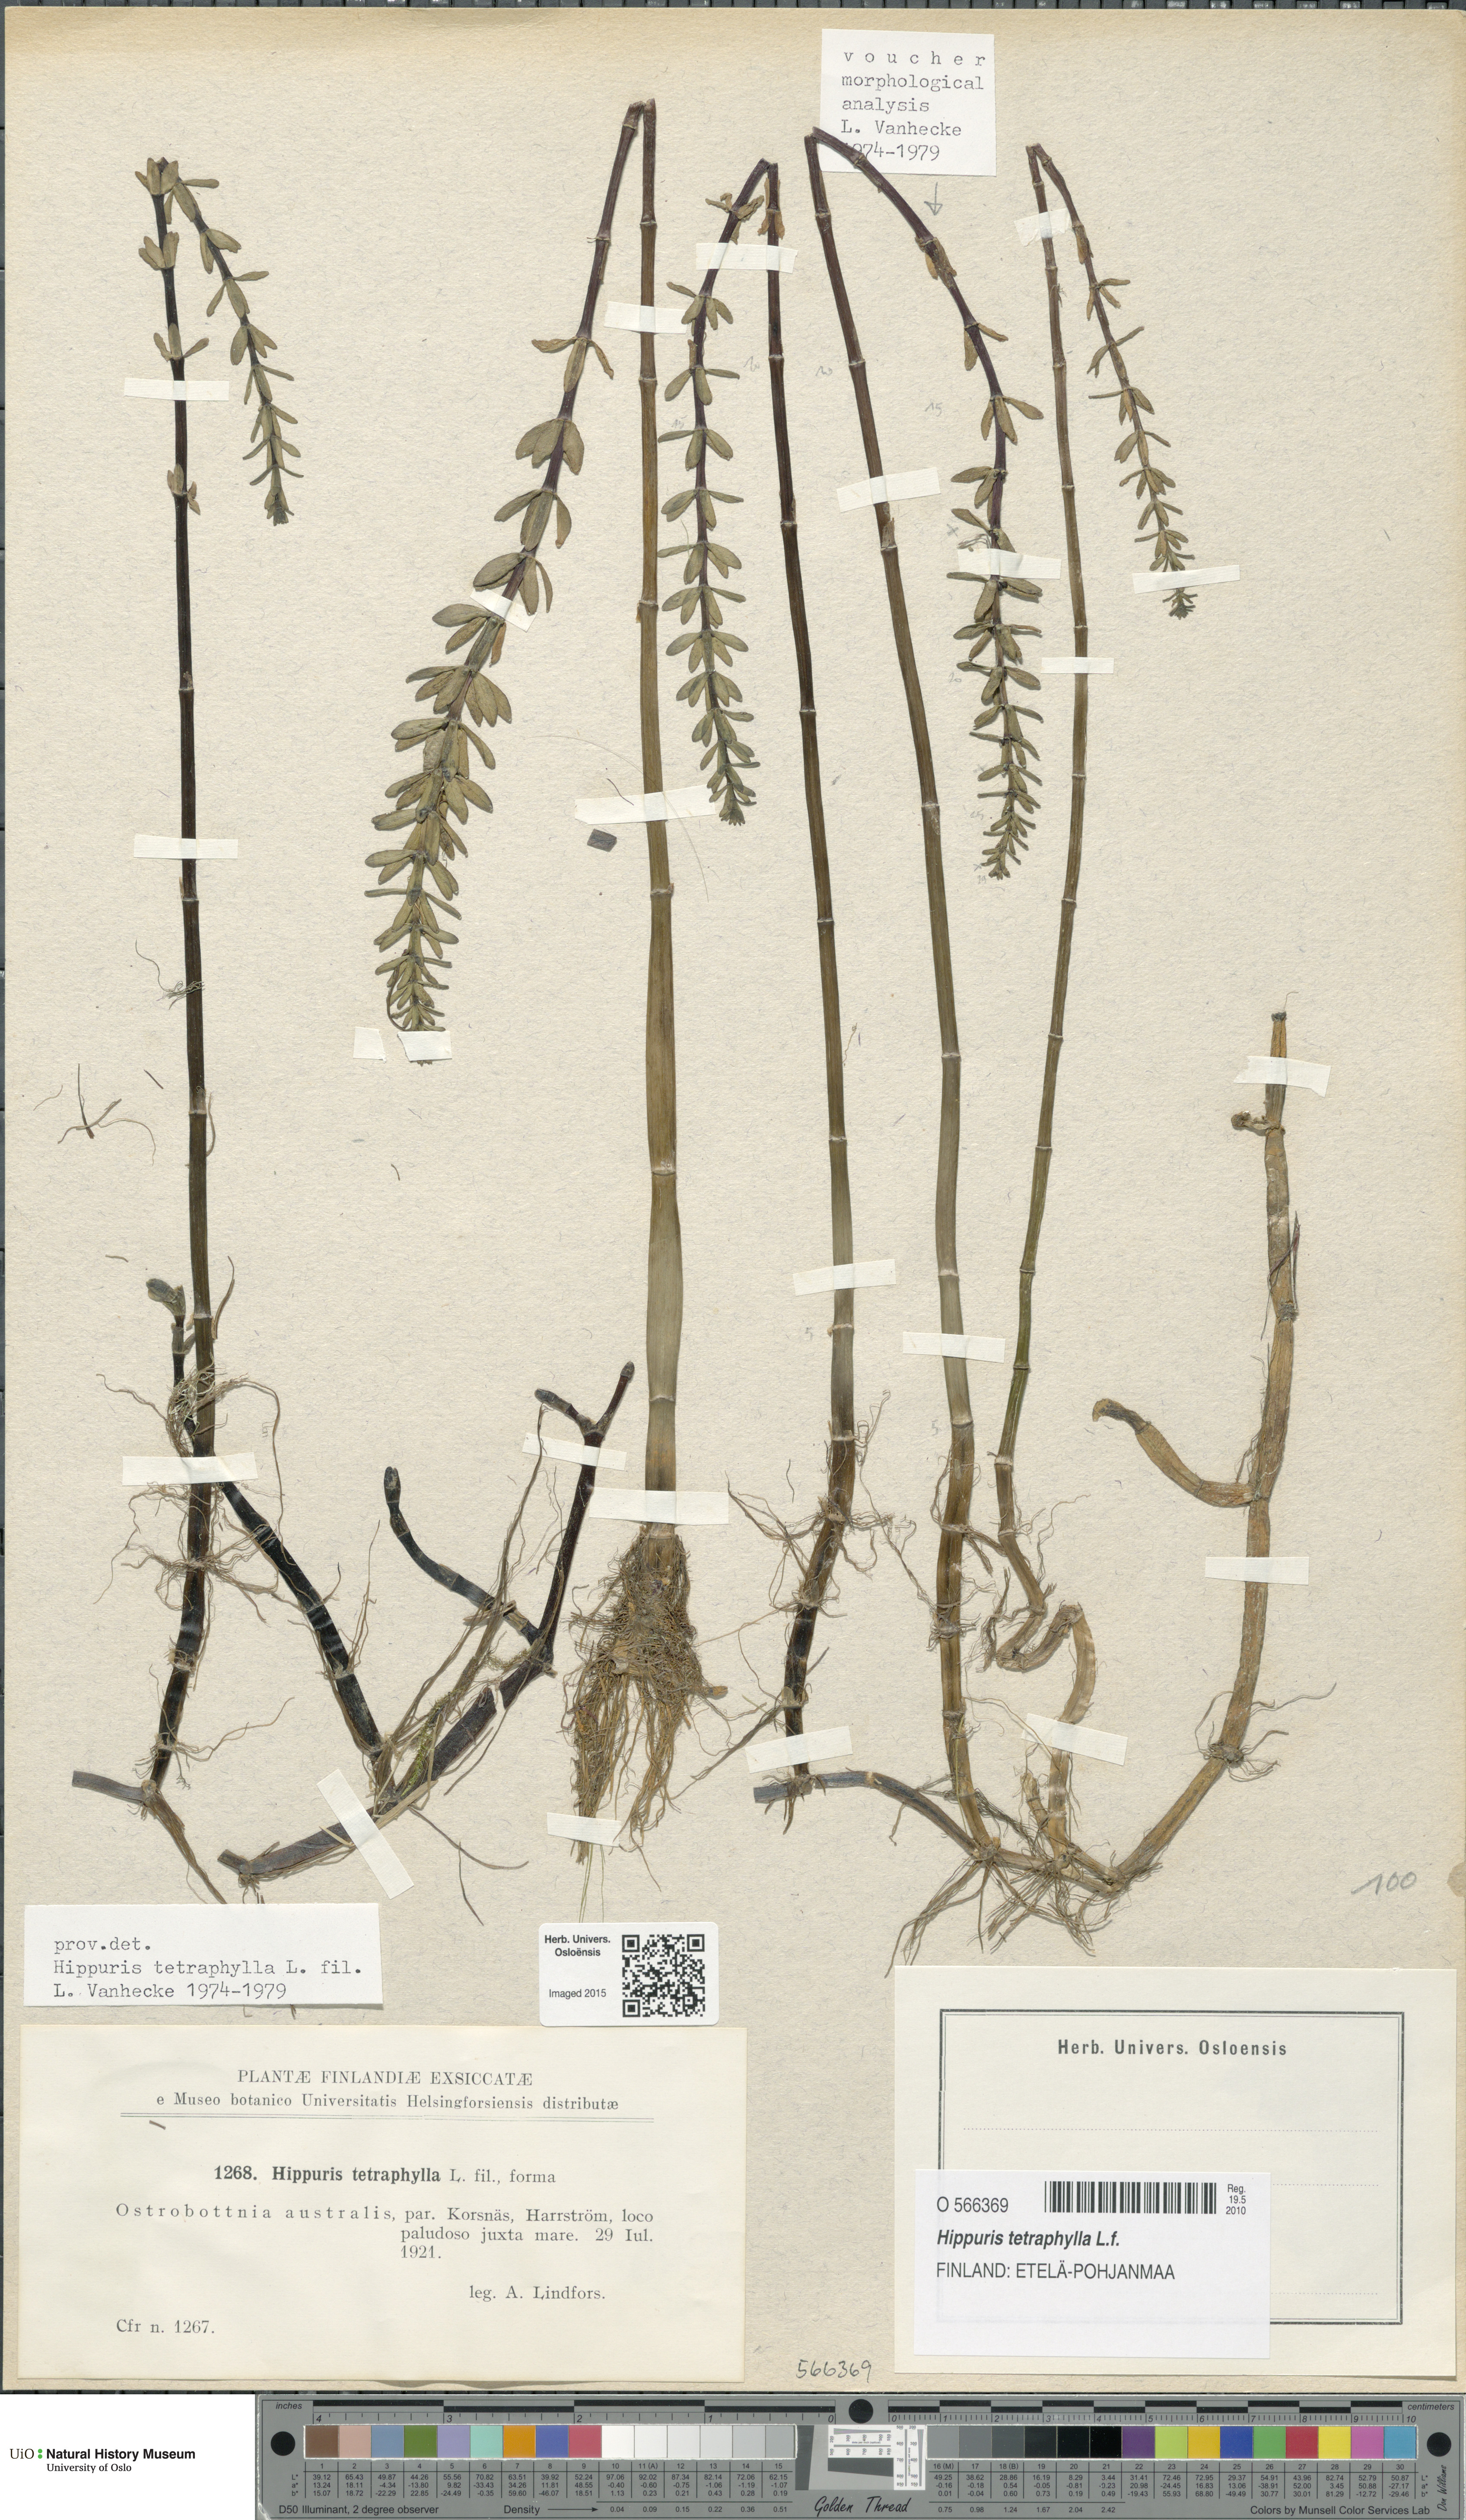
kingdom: Plantae
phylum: Tracheophyta
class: Magnoliopsida
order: Lamiales
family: Plantaginaceae
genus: Hippuris
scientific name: Hippuris tetraphylla
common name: Four-leaved mare's-tail
